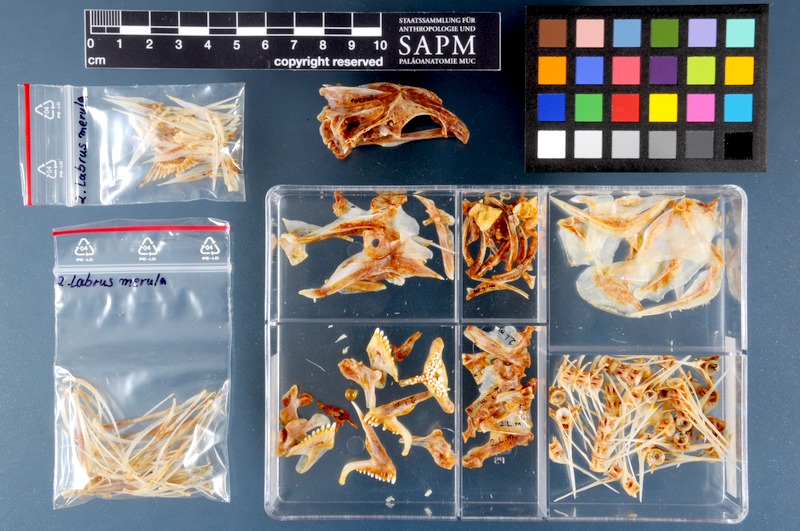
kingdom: Animalia
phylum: Chordata
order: Perciformes
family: Labridae
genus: Labrus
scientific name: Labrus merula
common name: Brown wrasse
